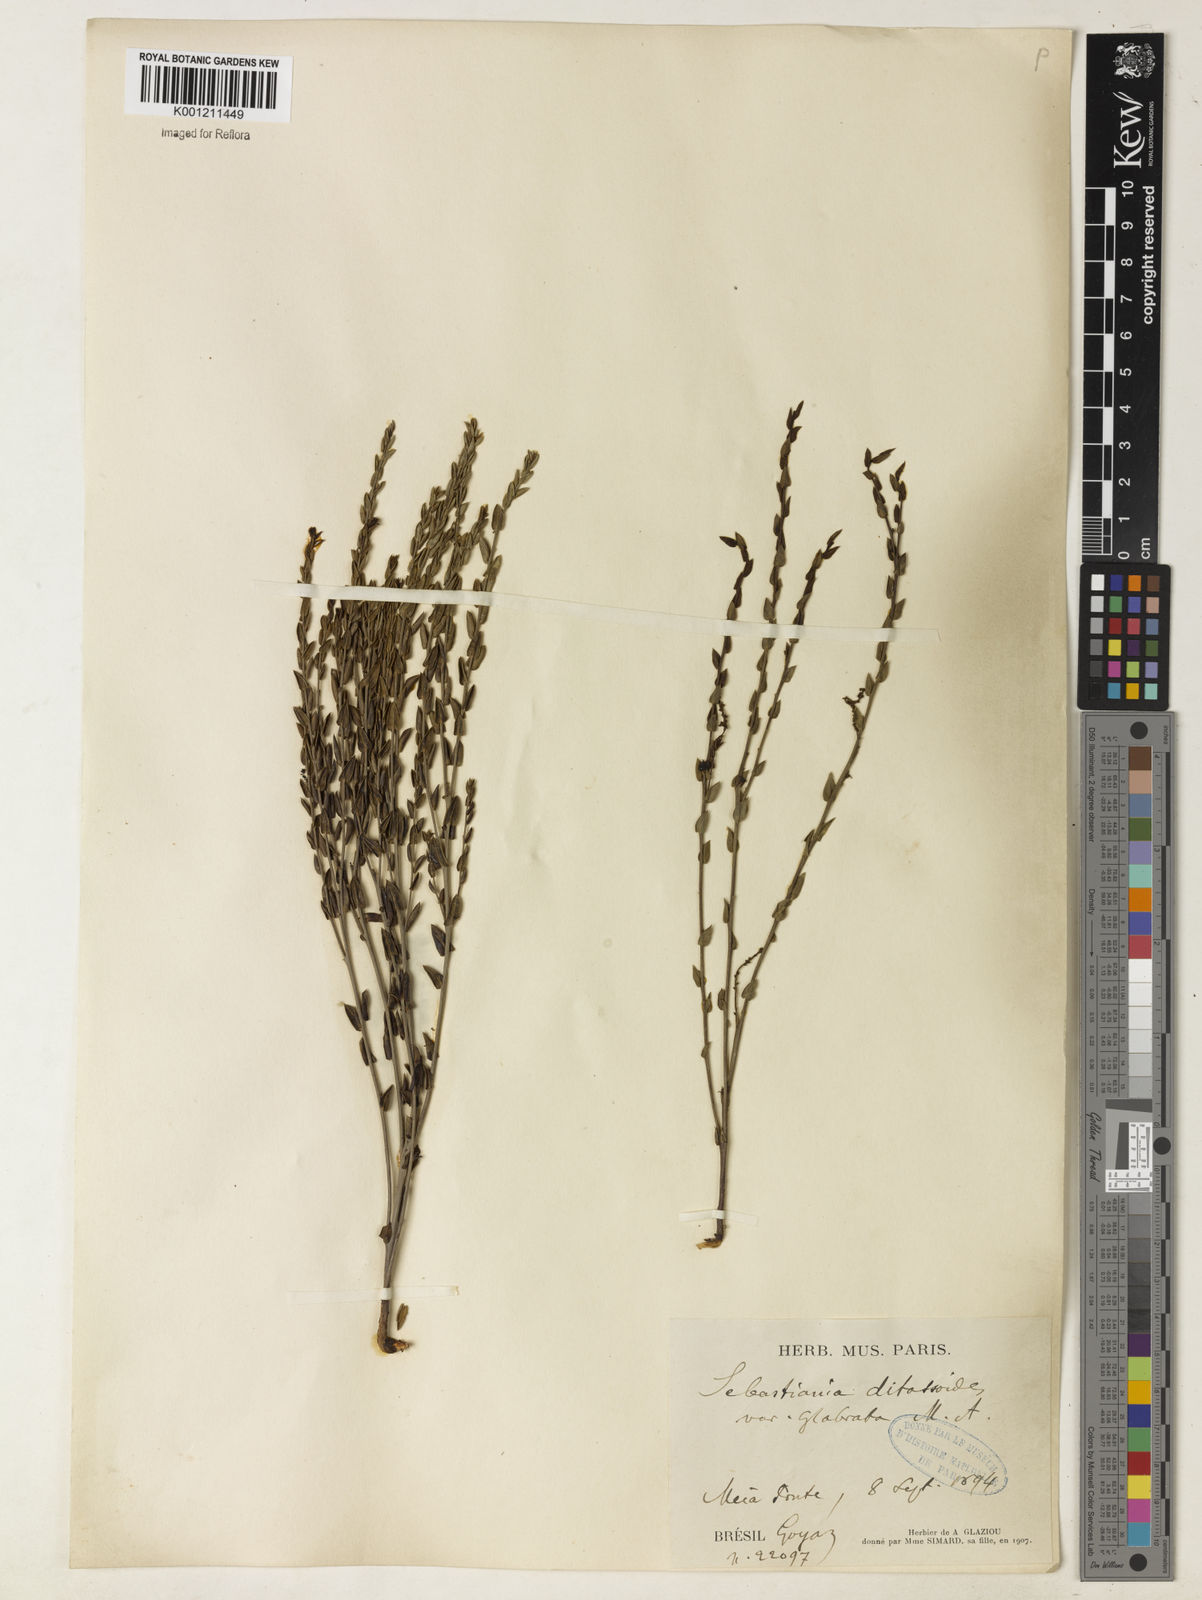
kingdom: Plantae
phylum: Tracheophyta
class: Magnoliopsida
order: Malpighiales
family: Euphorbiaceae
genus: Microstachys
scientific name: Microstachys ditassoides
